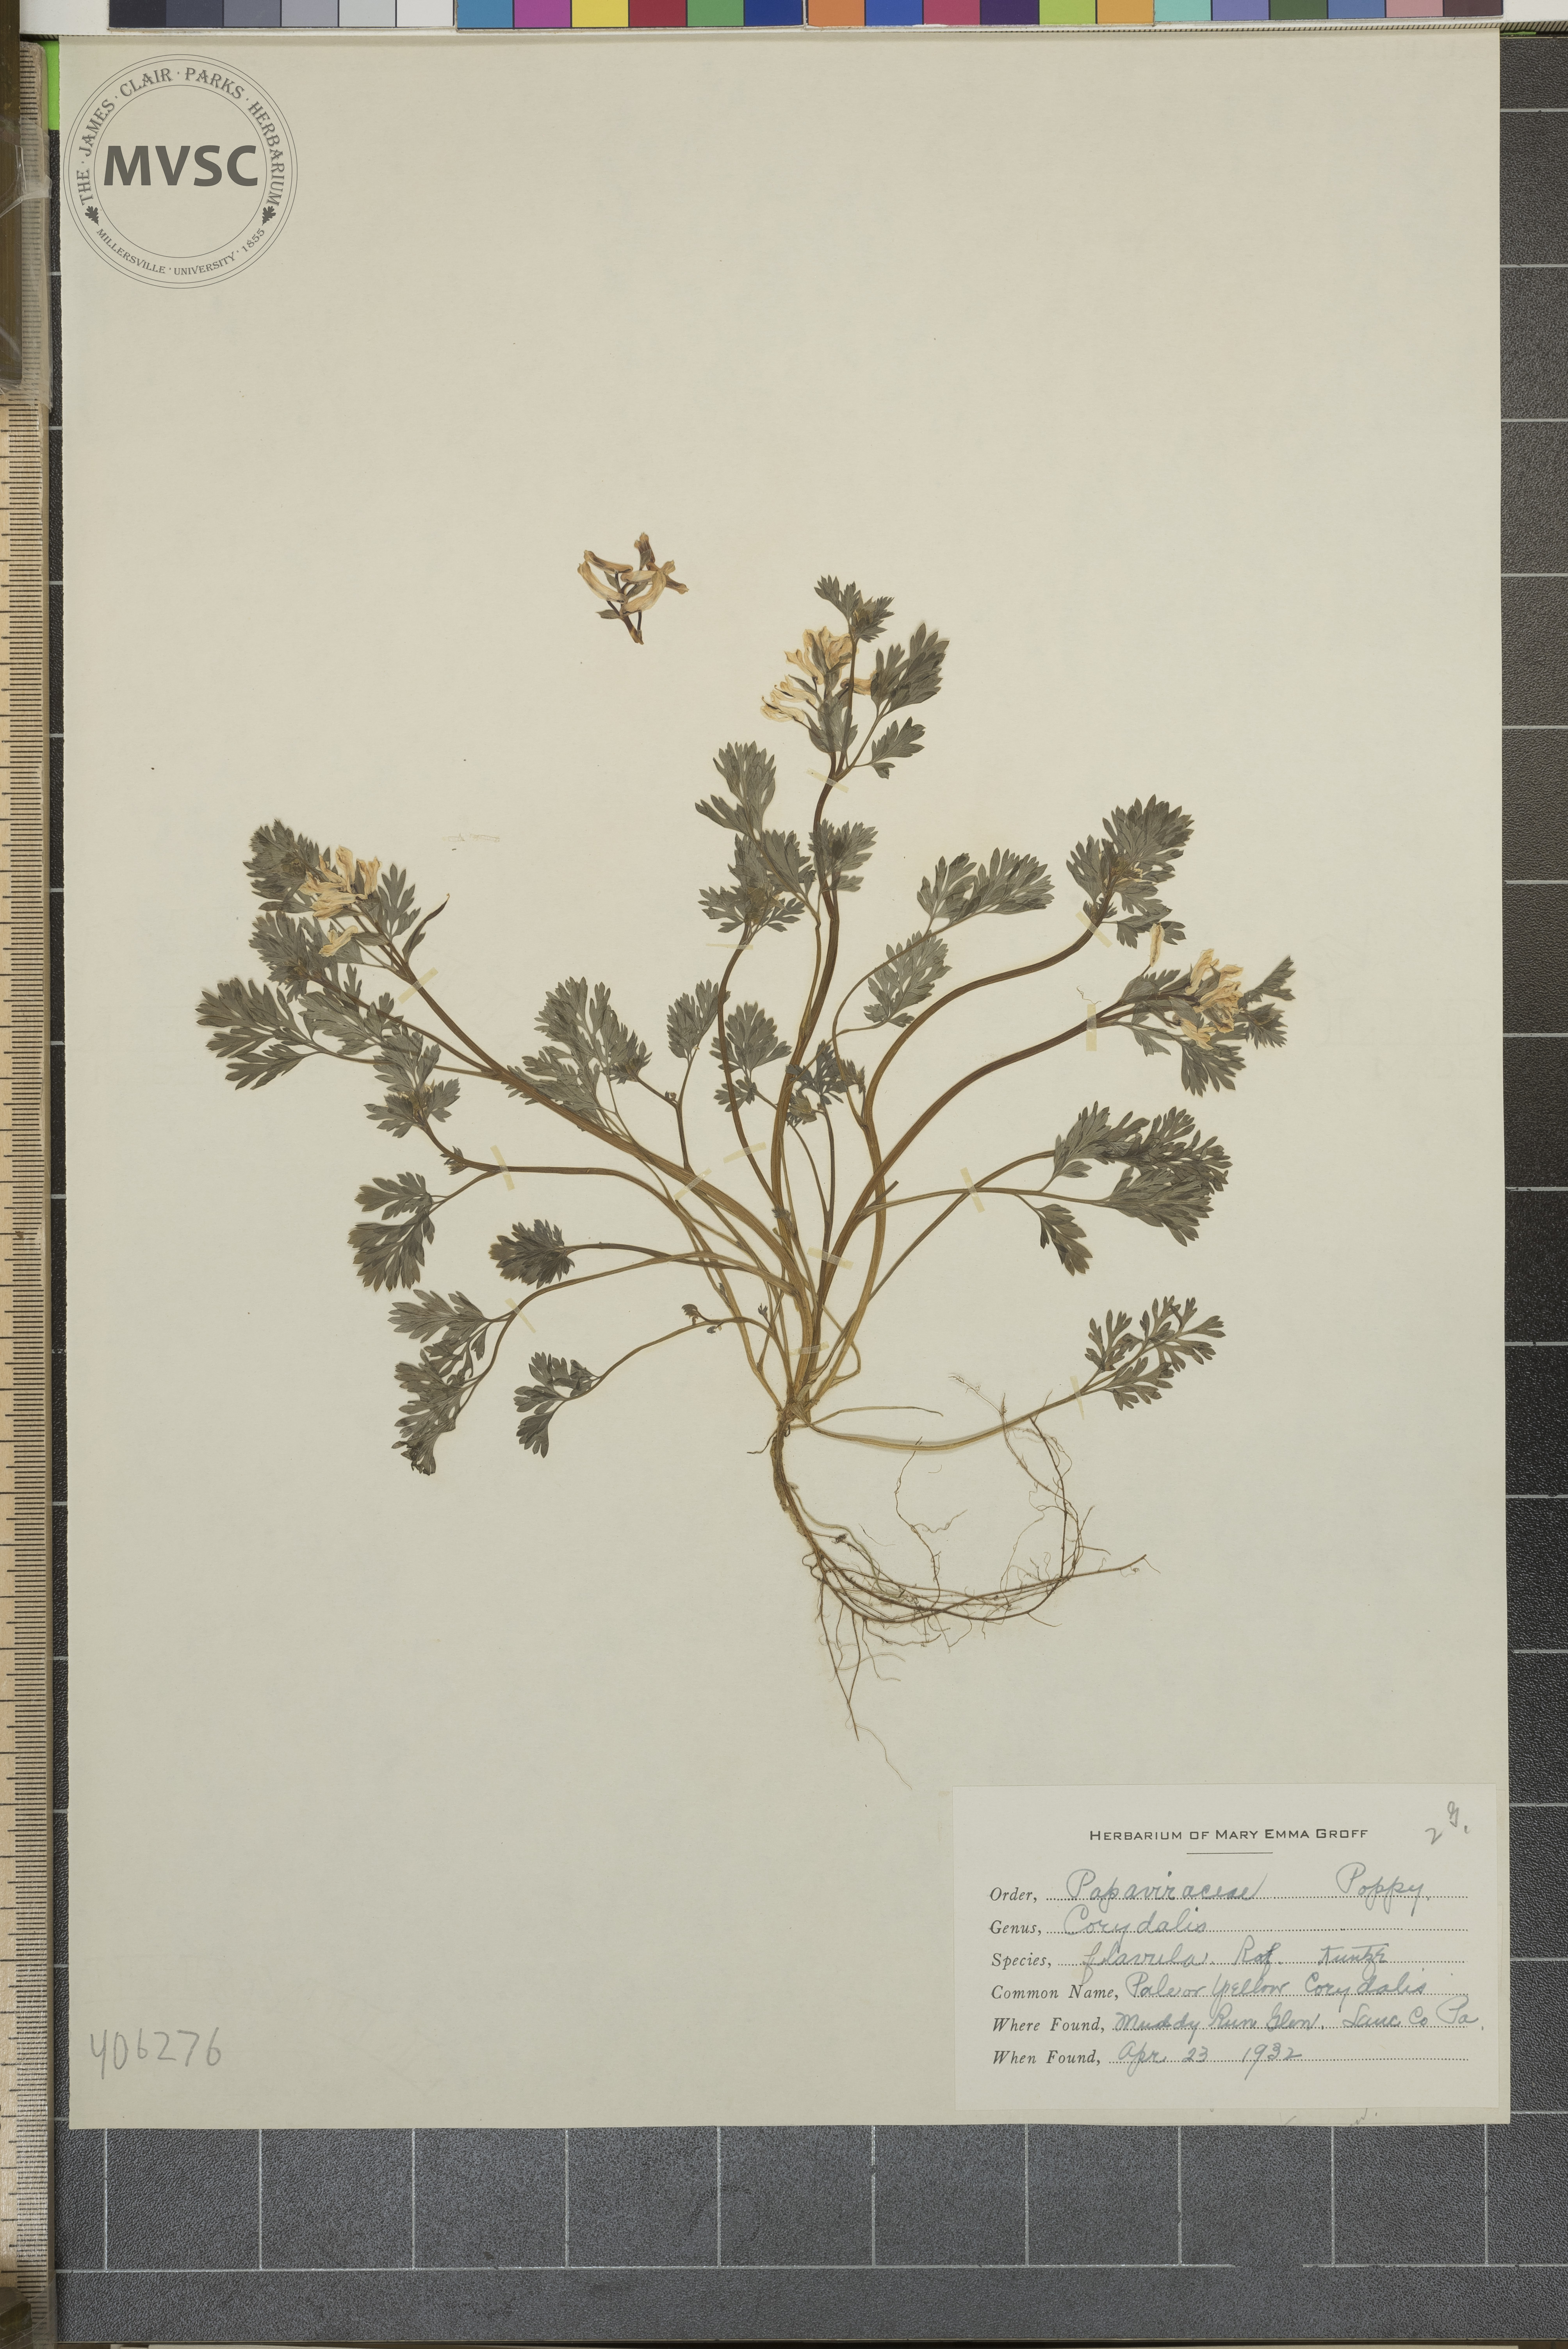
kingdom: Plantae
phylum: Tracheophyta
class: Magnoliopsida
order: Ranunculales
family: Papaveraceae
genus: Corydalis
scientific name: Corydalis flavula
